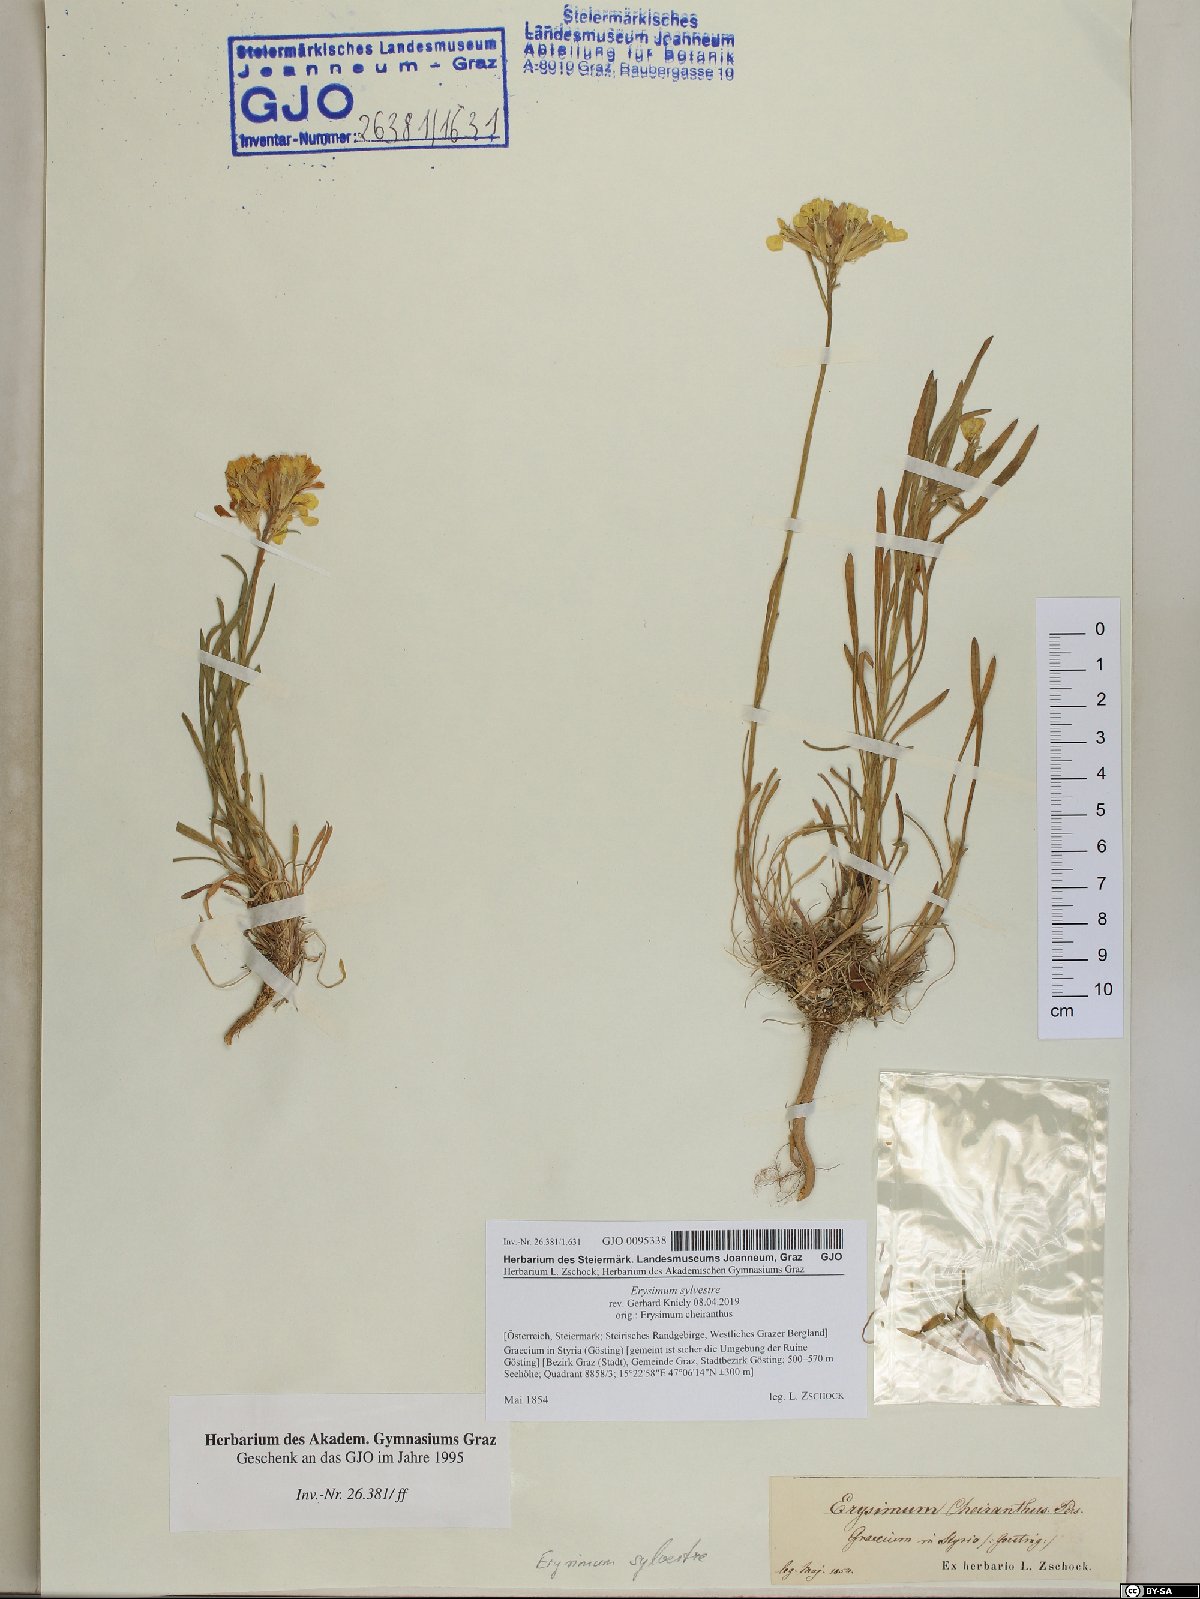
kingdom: Plantae
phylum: Tracheophyta
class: Magnoliopsida
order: Brassicales
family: Brassicaceae
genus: Erysimum
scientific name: Erysimum sylvestre
